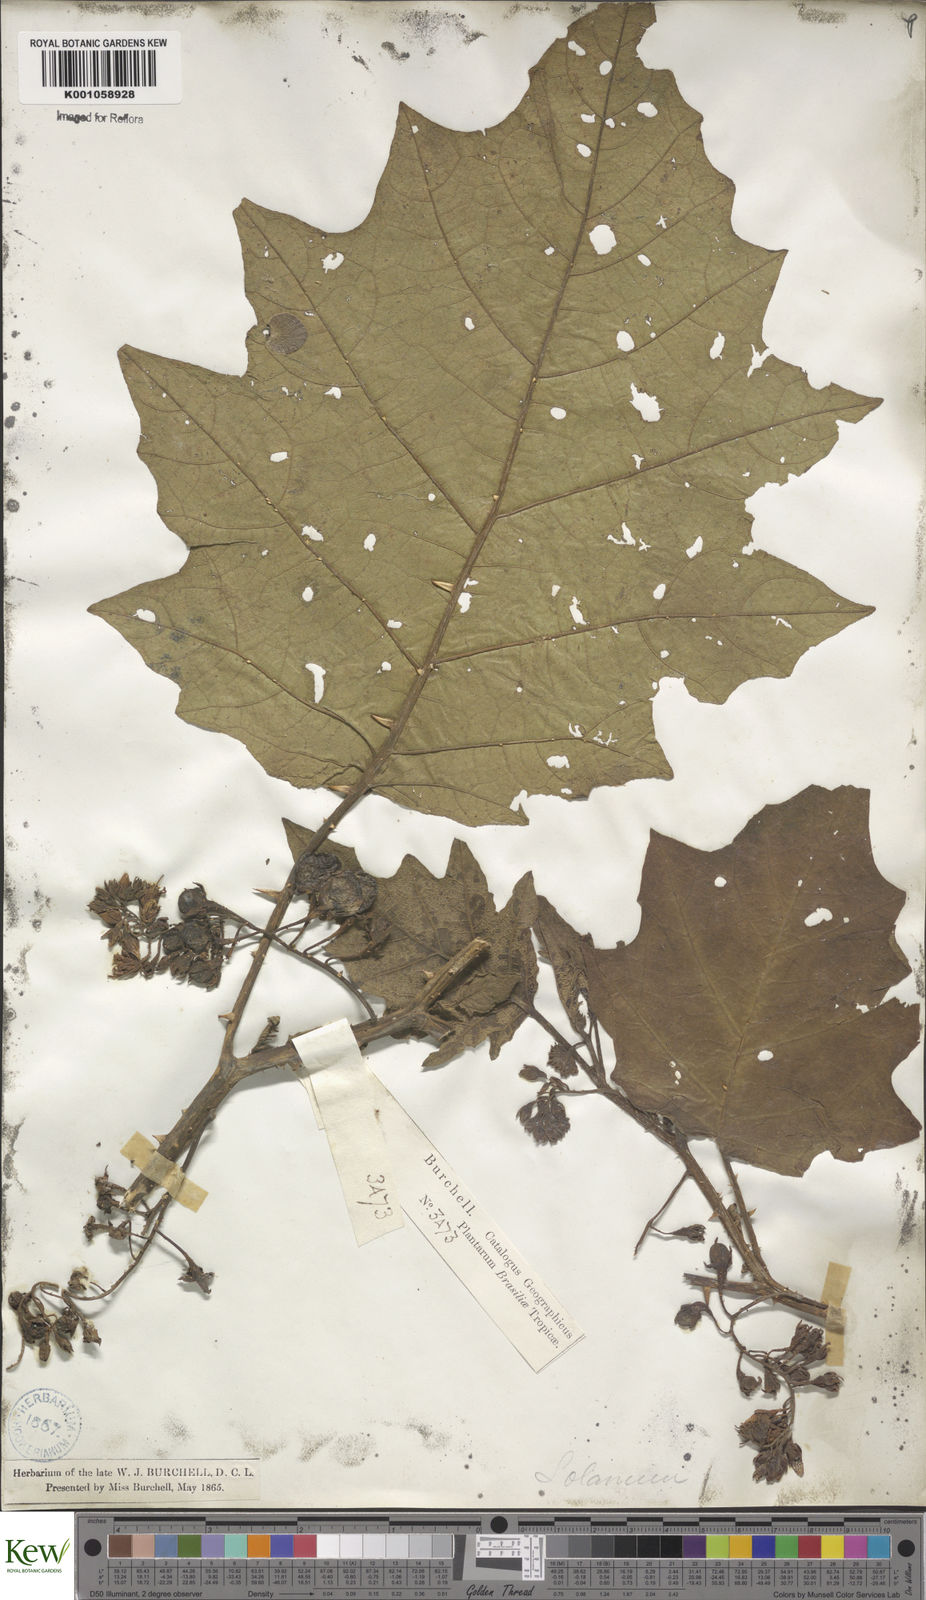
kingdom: Plantae
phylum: Tracheophyta
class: Magnoliopsida
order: Solanales
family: Solanaceae
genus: Solanum
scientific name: Solanum jussiaei
